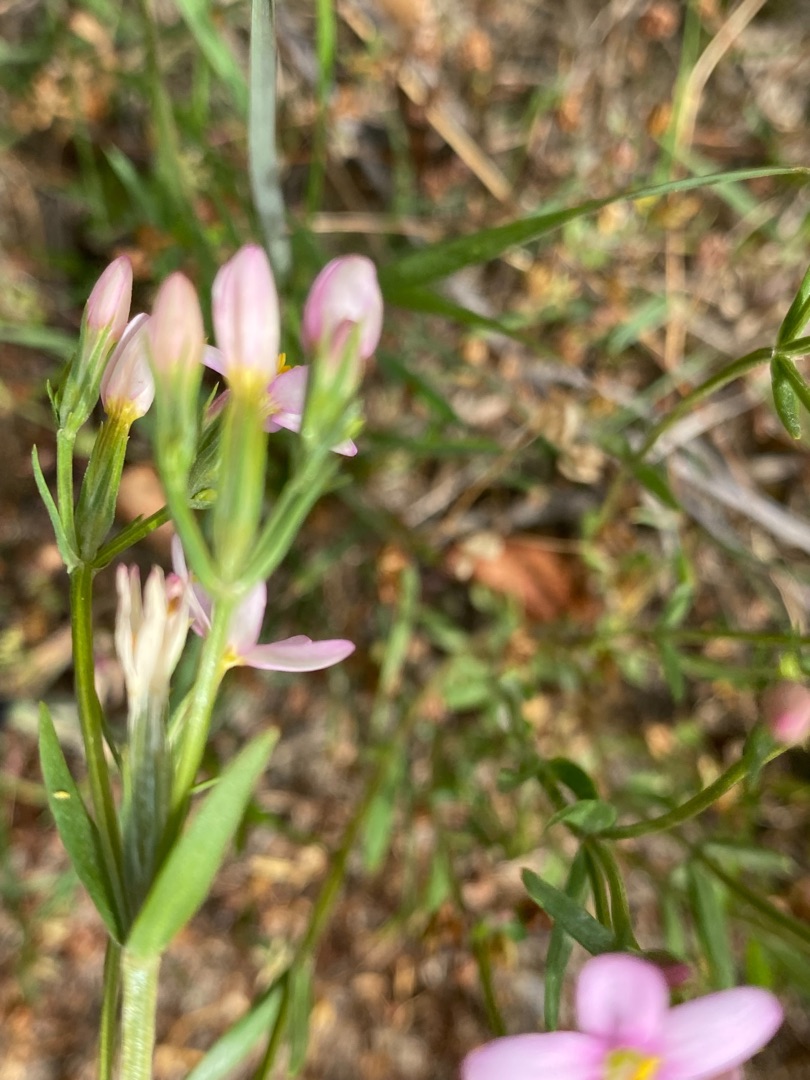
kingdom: Plantae
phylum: Tracheophyta
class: Magnoliopsida
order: Gentianales
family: Gentianaceae
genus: Centaurium
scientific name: Centaurium littorale
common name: Strand-tusindgylden
